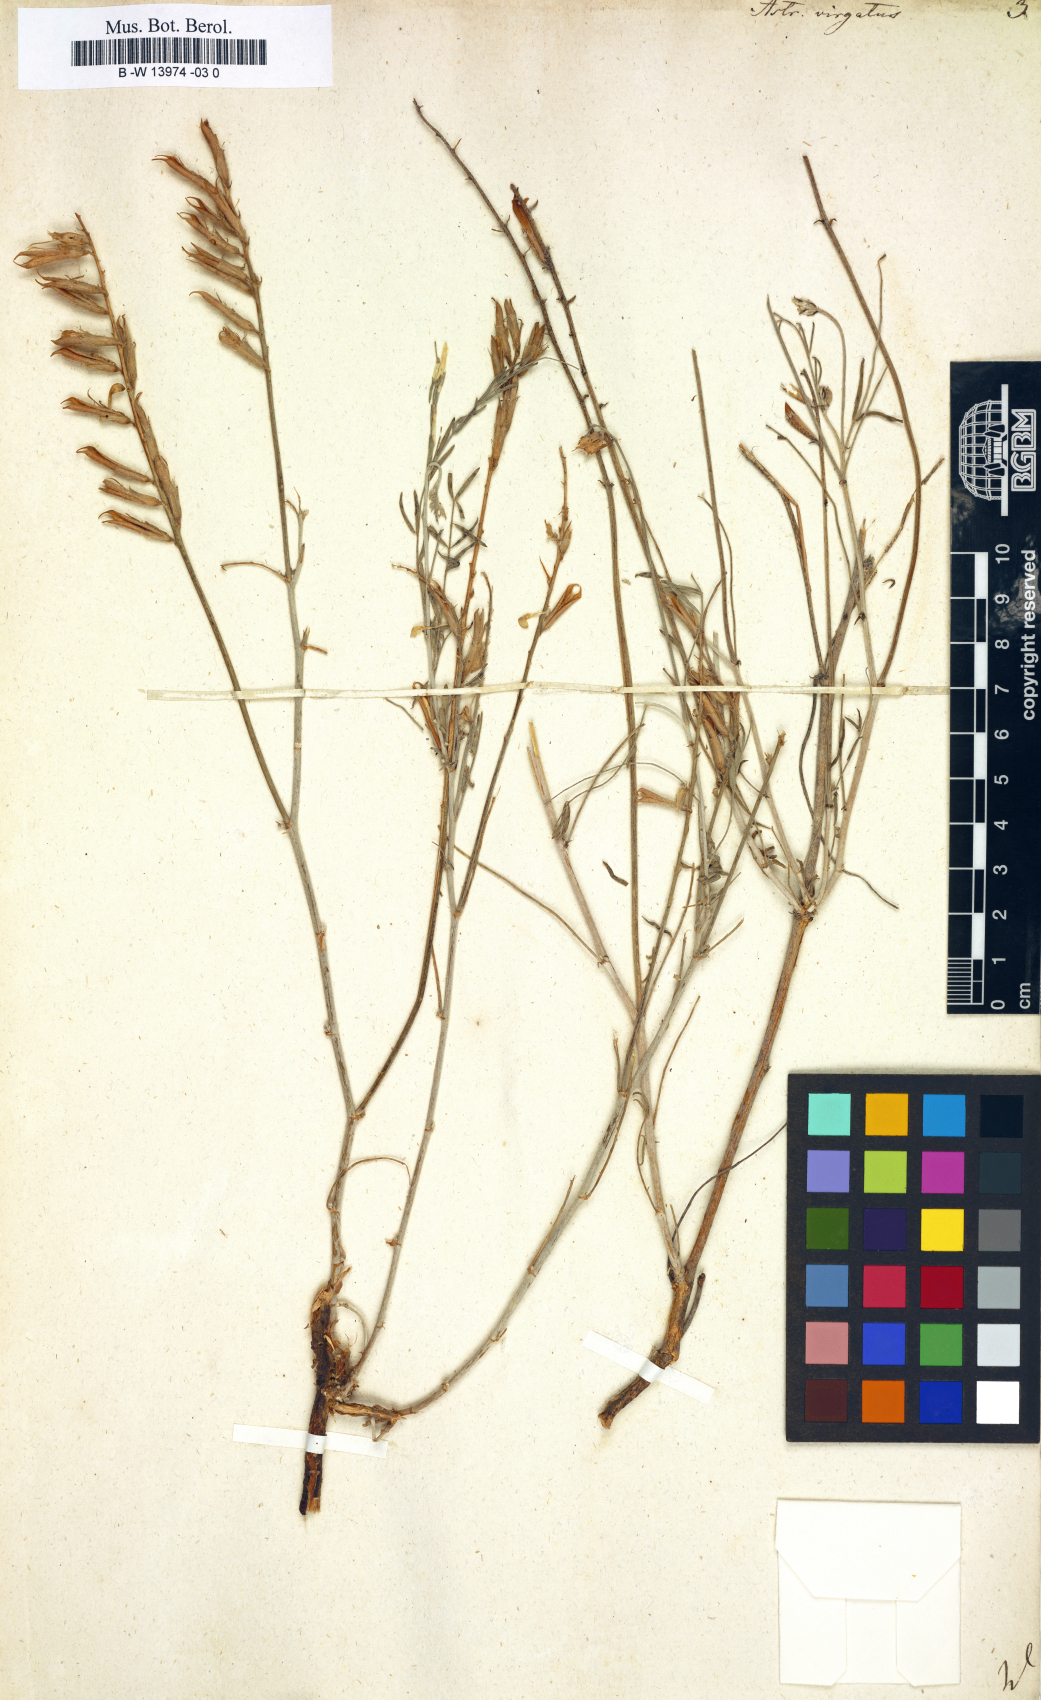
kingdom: Plantae
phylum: Tracheophyta
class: Magnoliopsida
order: Fabales
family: Fabaceae
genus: Astragalus
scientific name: Astragalus
